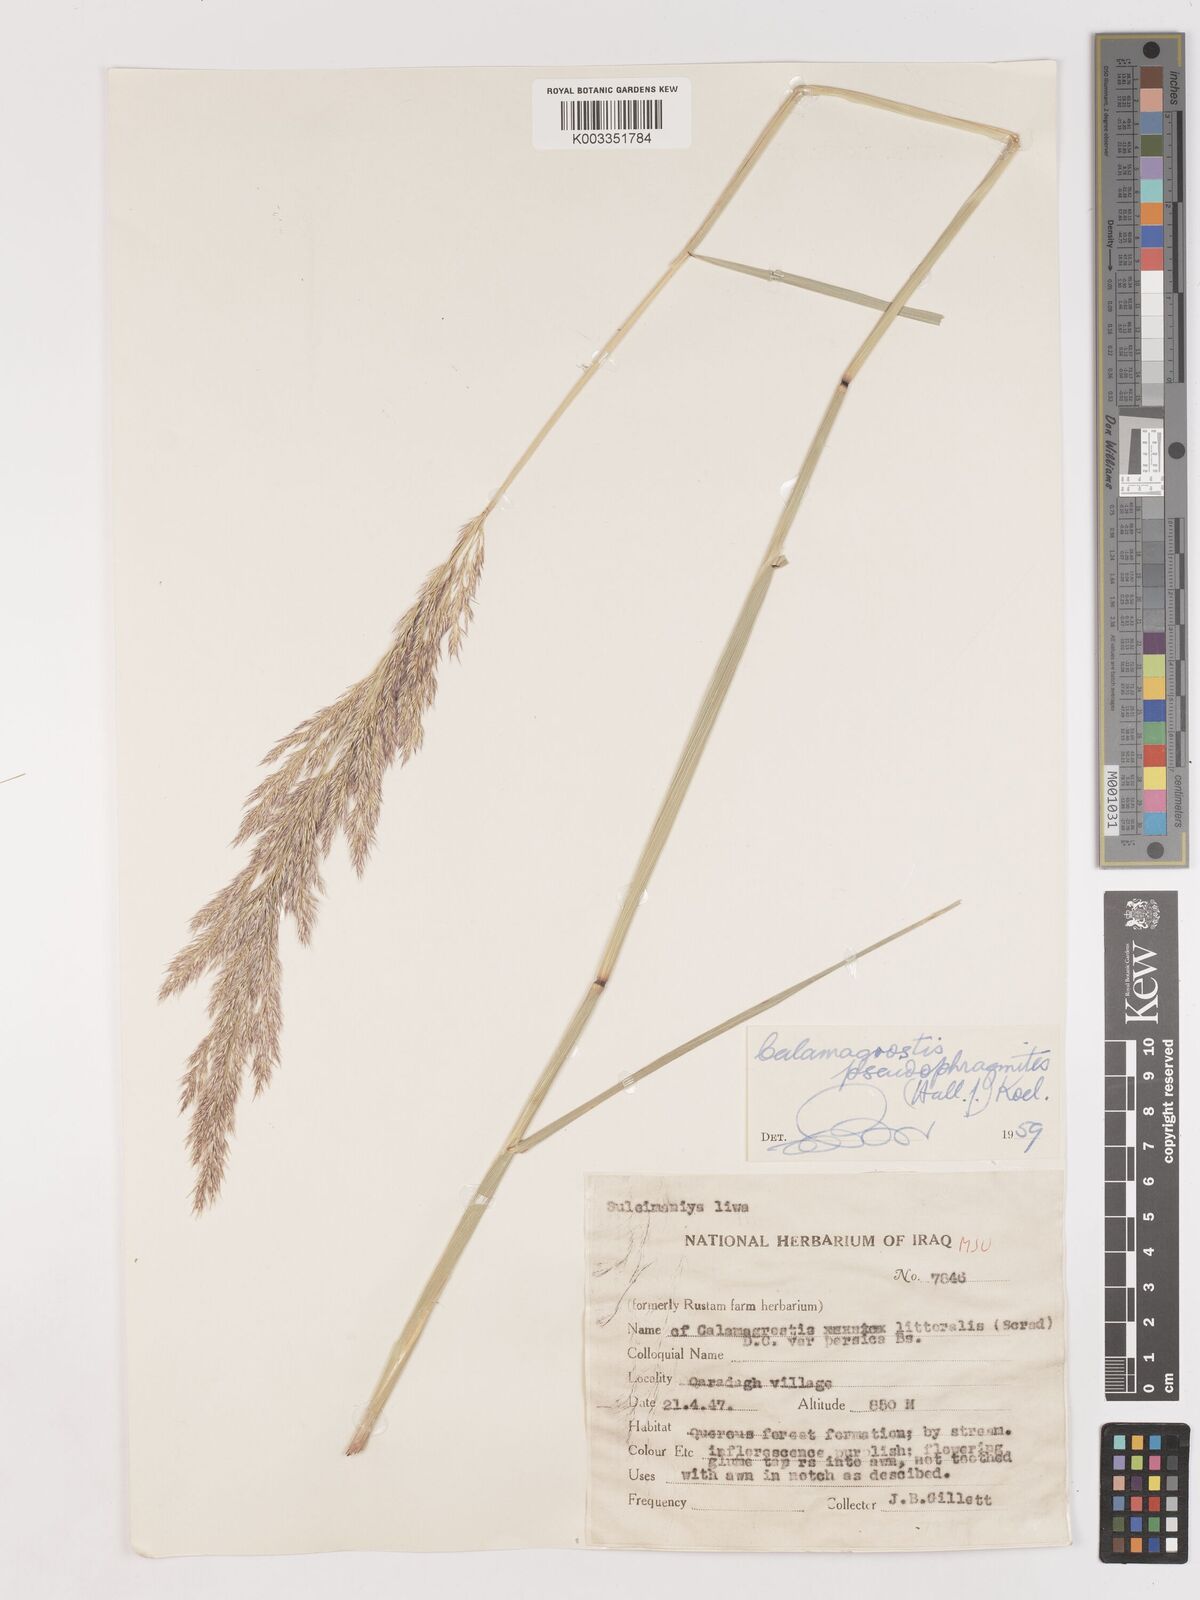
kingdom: Plantae
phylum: Tracheophyta
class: Liliopsida
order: Poales
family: Poaceae
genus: Calamagrostis
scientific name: Calamagrostis pseudophragmites
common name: Coastal small-reed
